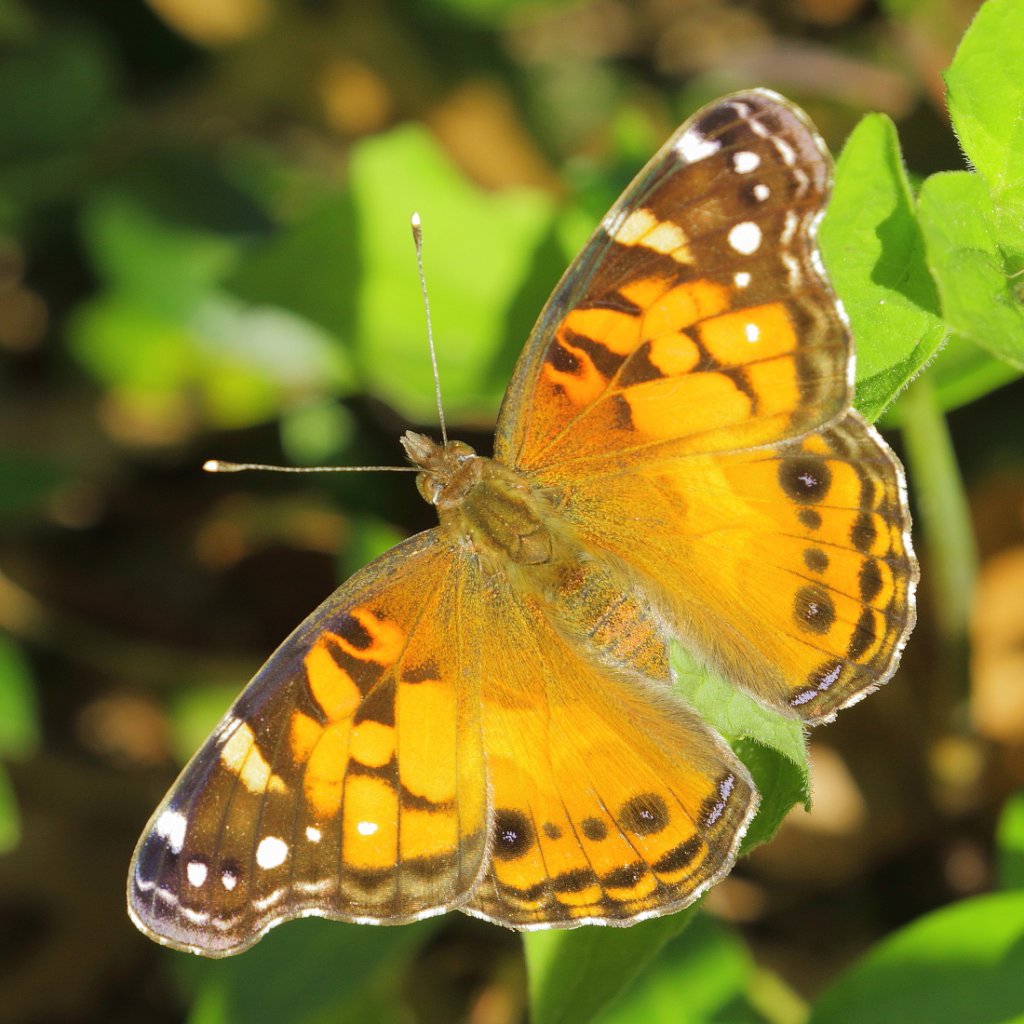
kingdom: Animalia
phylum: Arthropoda
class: Insecta
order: Lepidoptera
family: Nymphalidae
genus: Vanessa
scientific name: Vanessa virginiensis
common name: American Lady
